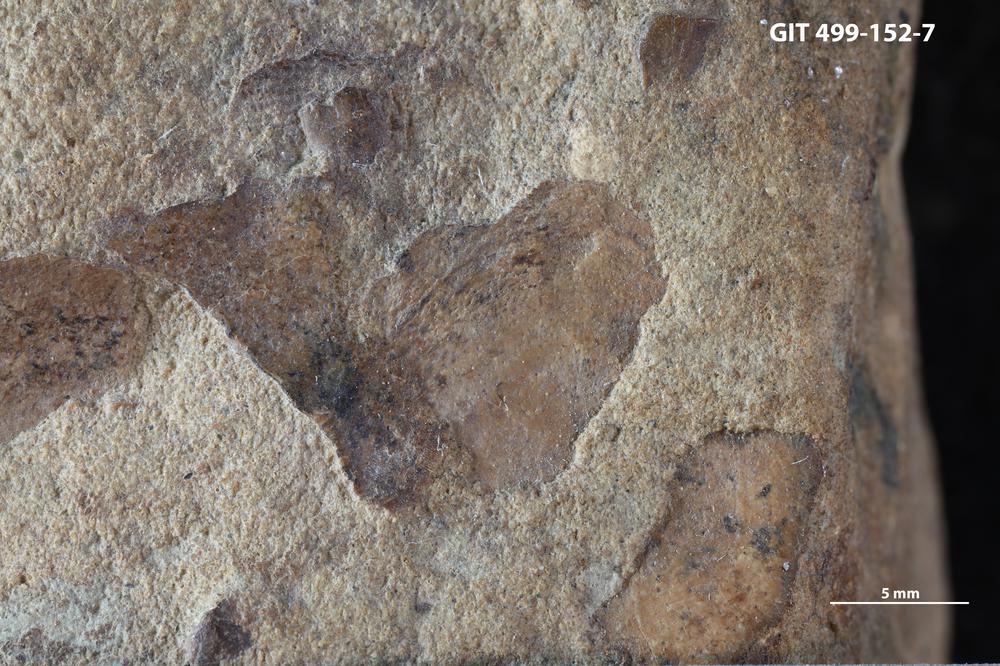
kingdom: Animalia
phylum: Chordata
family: Holoptychiidae
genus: Glyptolepis
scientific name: Glyptolepis
